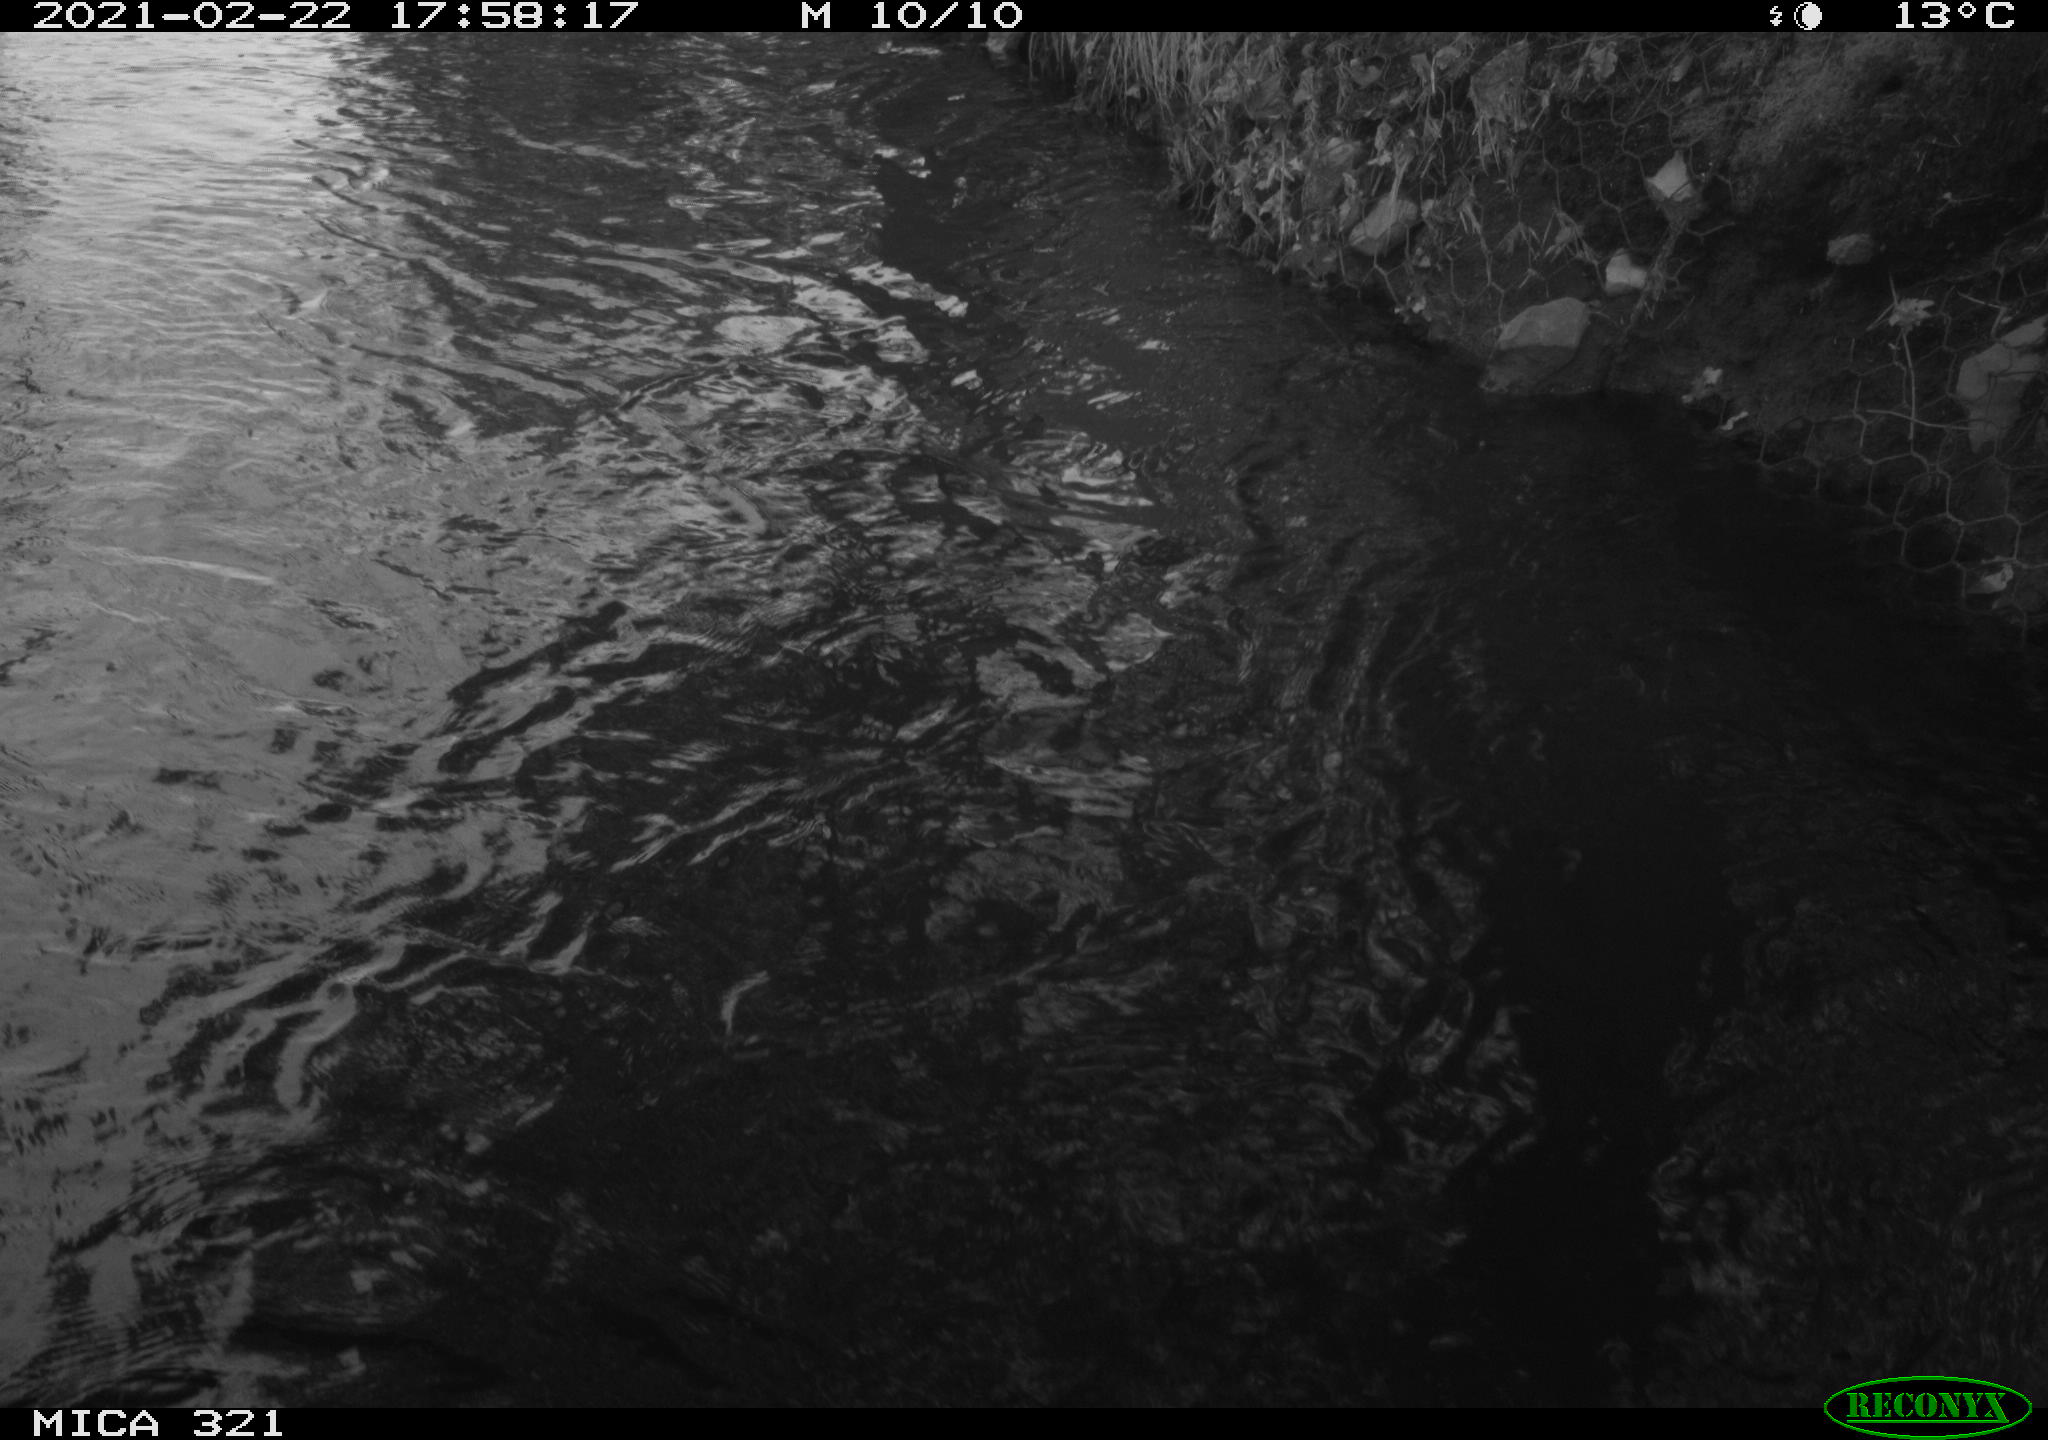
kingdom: Animalia
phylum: Chordata
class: Aves
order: Anseriformes
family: Anatidae
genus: Anas
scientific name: Anas platyrhynchos
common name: Mallard
